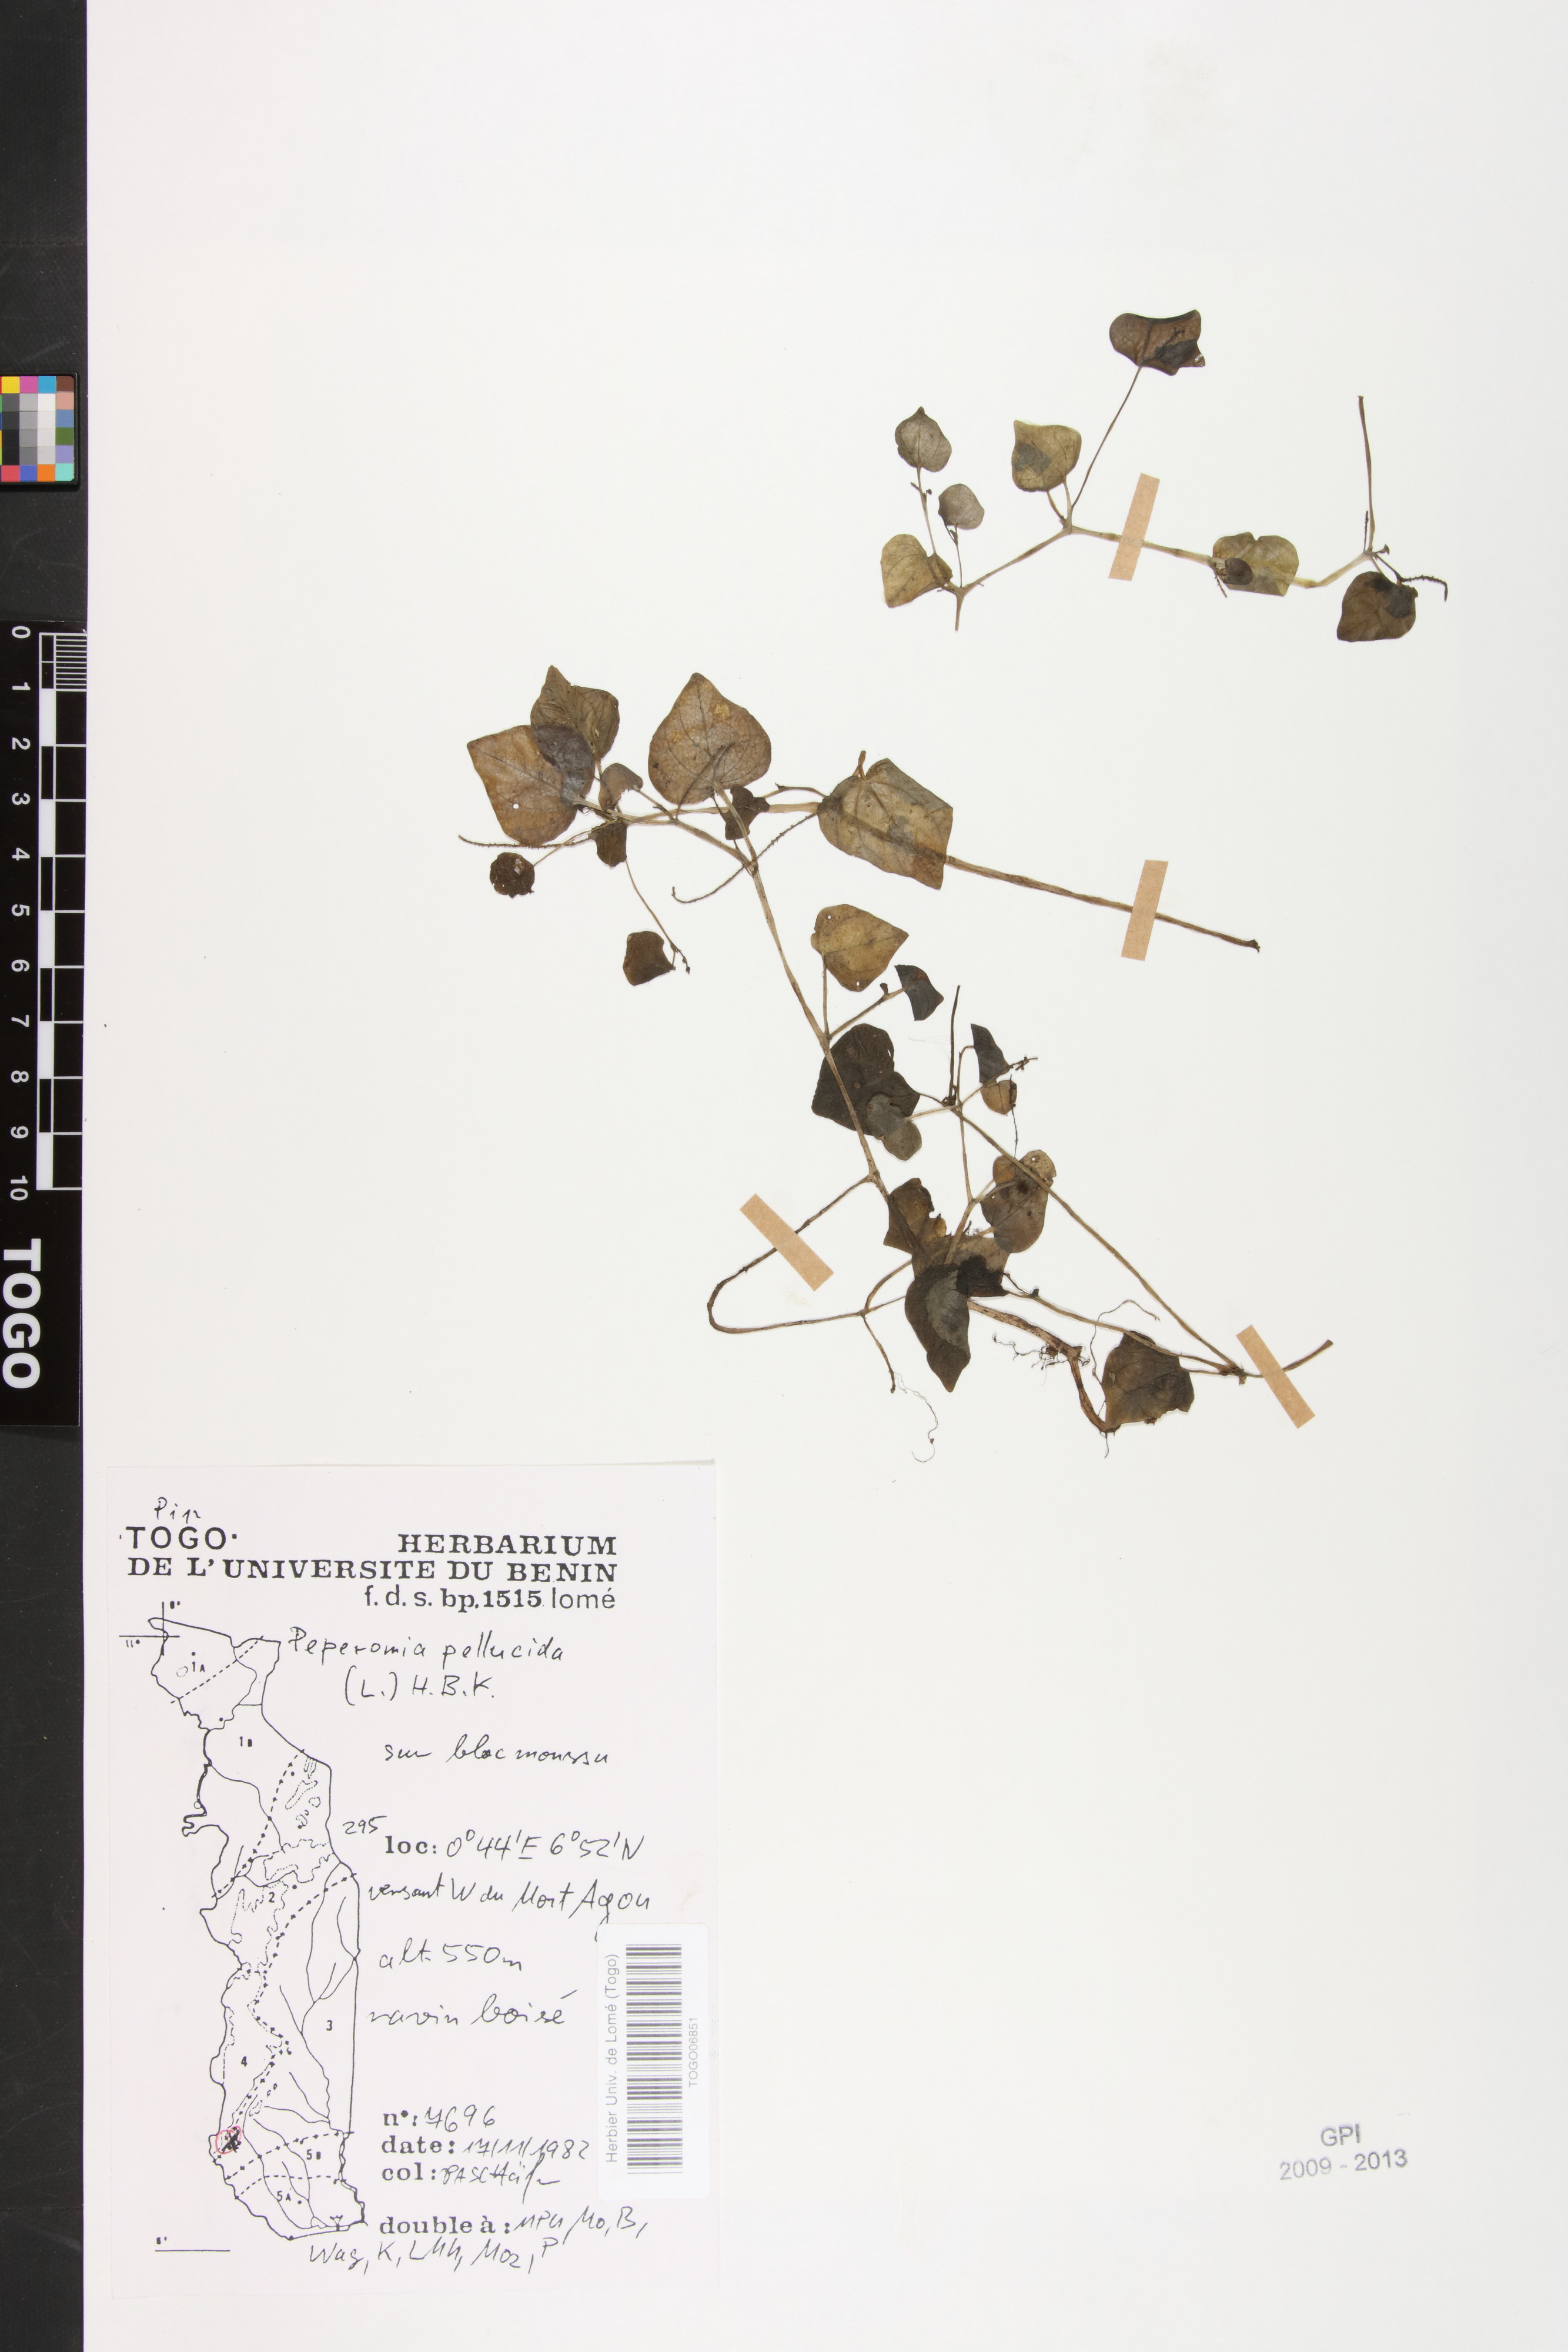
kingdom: Plantae
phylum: Tracheophyta
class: Magnoliopsida
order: Piperales
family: Piperaceae
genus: Peperomia
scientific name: Peperomia pellucida
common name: Man to man
